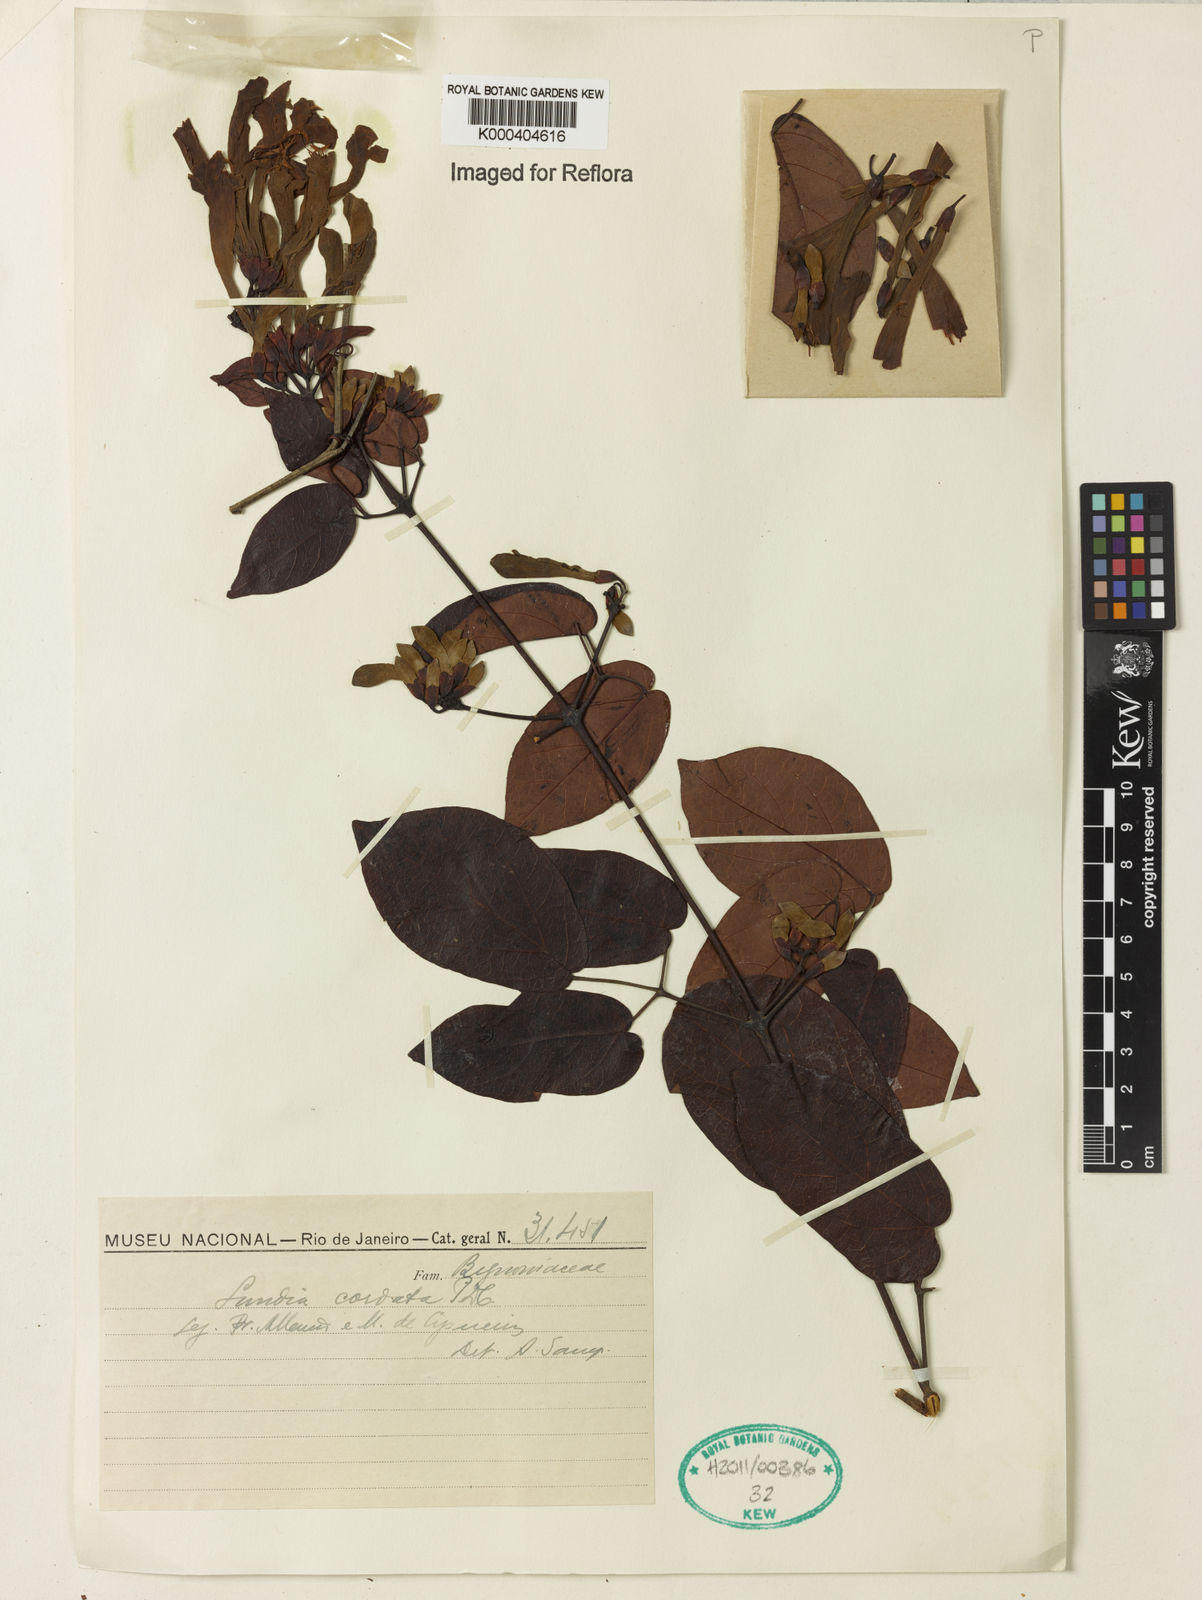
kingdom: Plantae
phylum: Tracheophyta
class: Magnoliopsida
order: Lamiales
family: Bignoniaceae
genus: Lundia
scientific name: Lundia corymbifera
